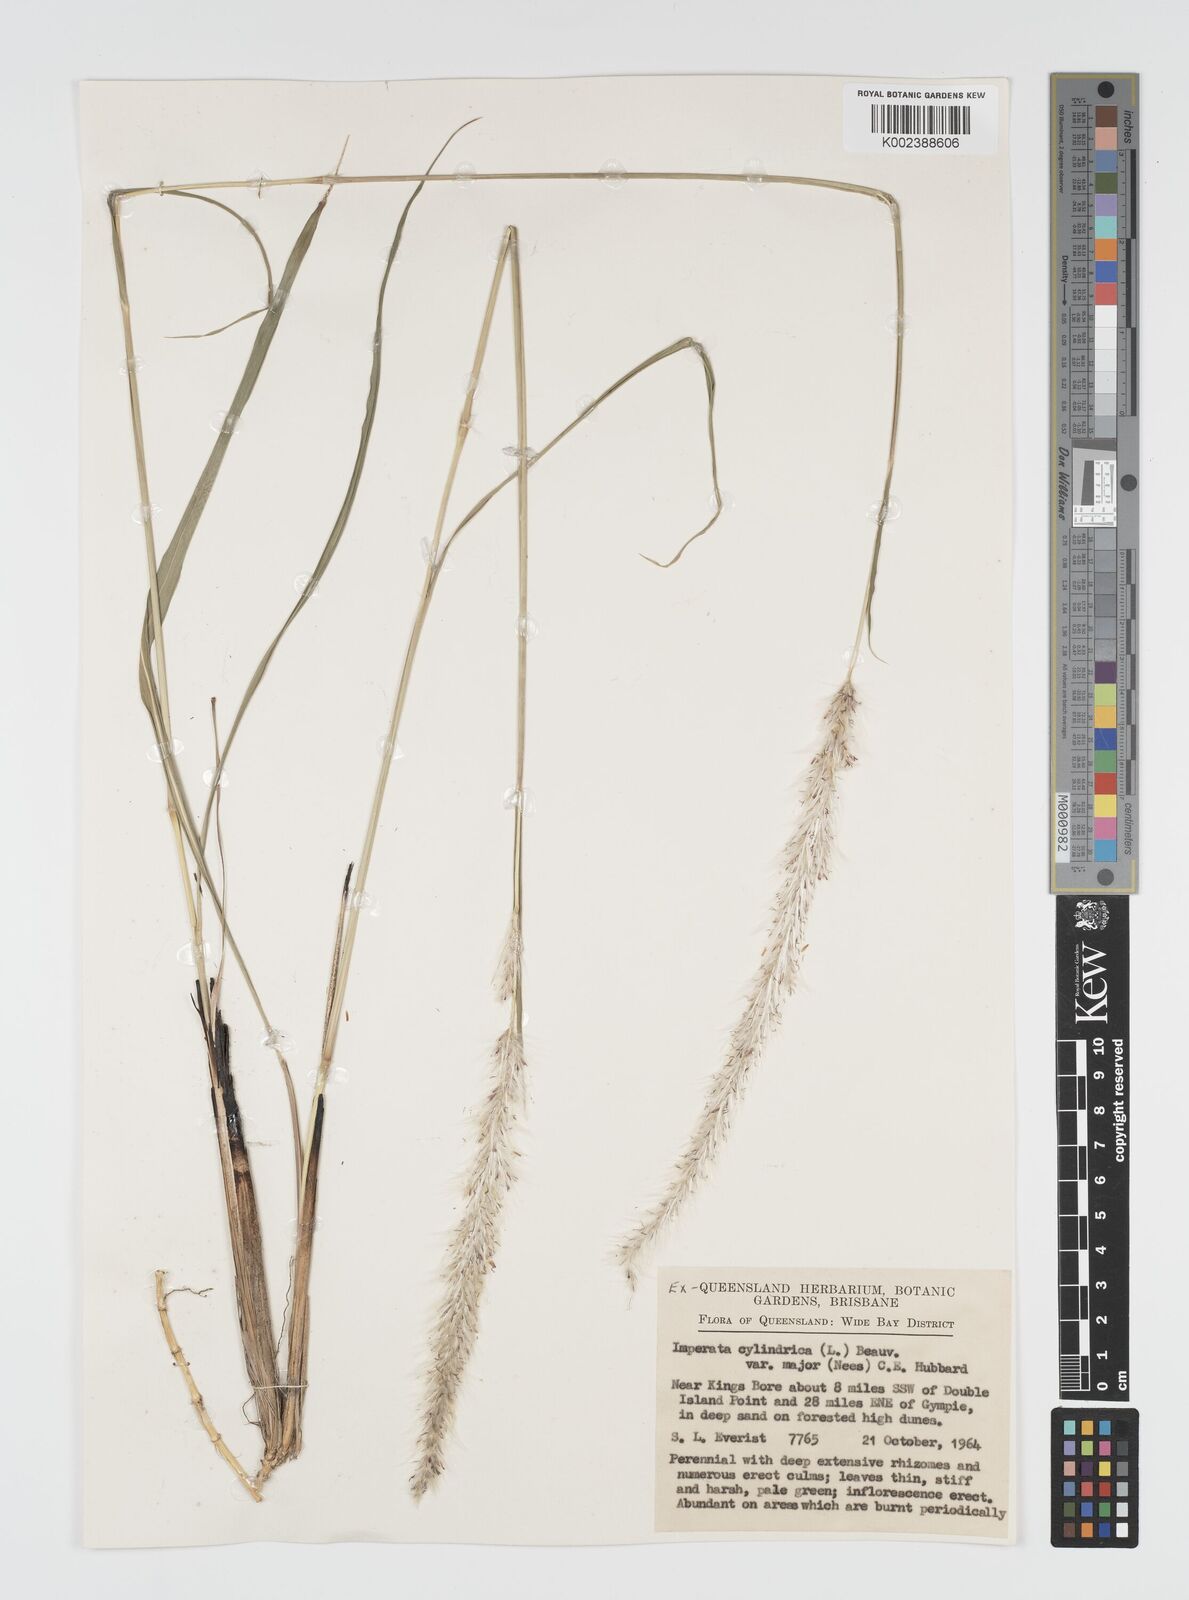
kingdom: Plantae
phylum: Tracheophyta
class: Liliopsida
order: Poales
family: Poaceae
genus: Imperata
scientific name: Imperata cylindrica
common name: Cogongrass
